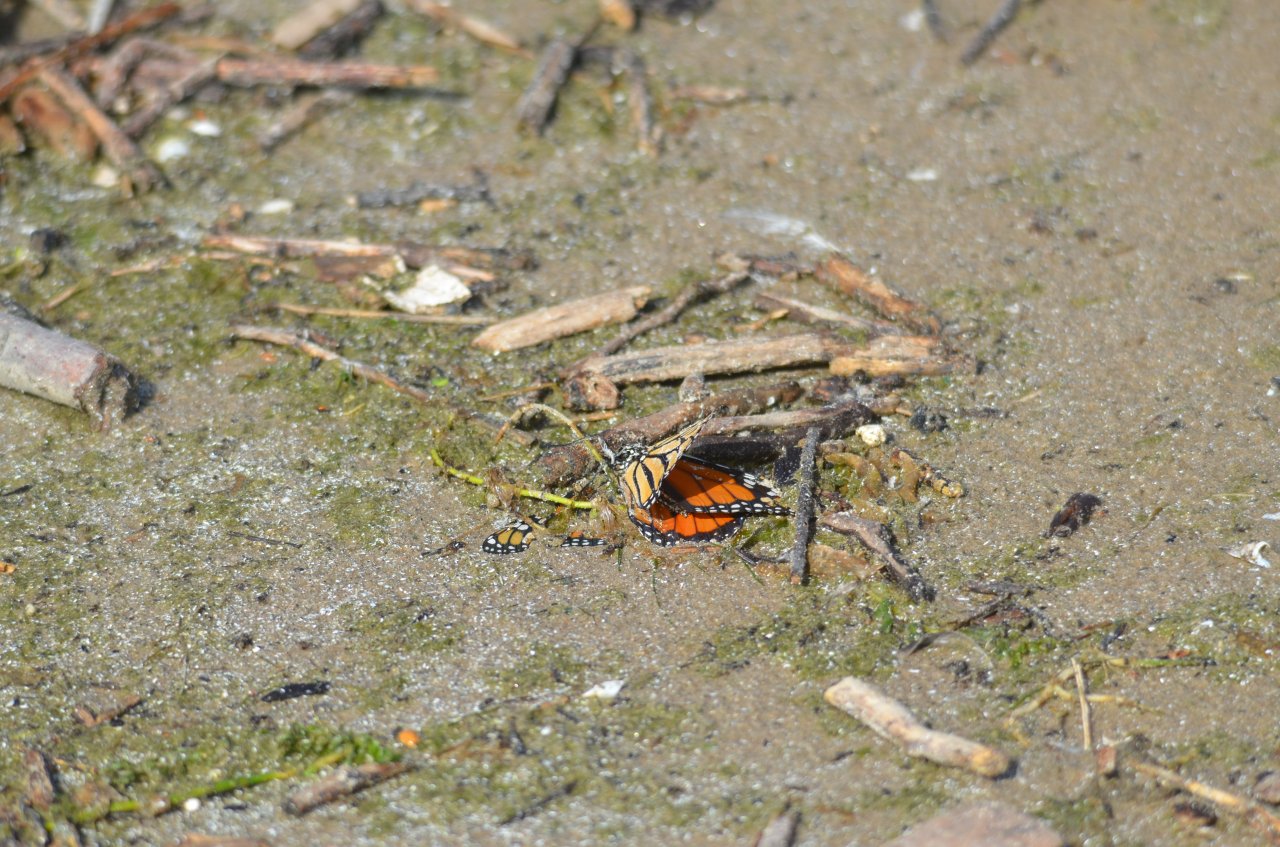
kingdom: Animalia
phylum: Arthropoda
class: Insecta
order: Lepidoptera
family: Nymphalidae
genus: Danaus
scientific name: Danaus plexippus
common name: Monarch
